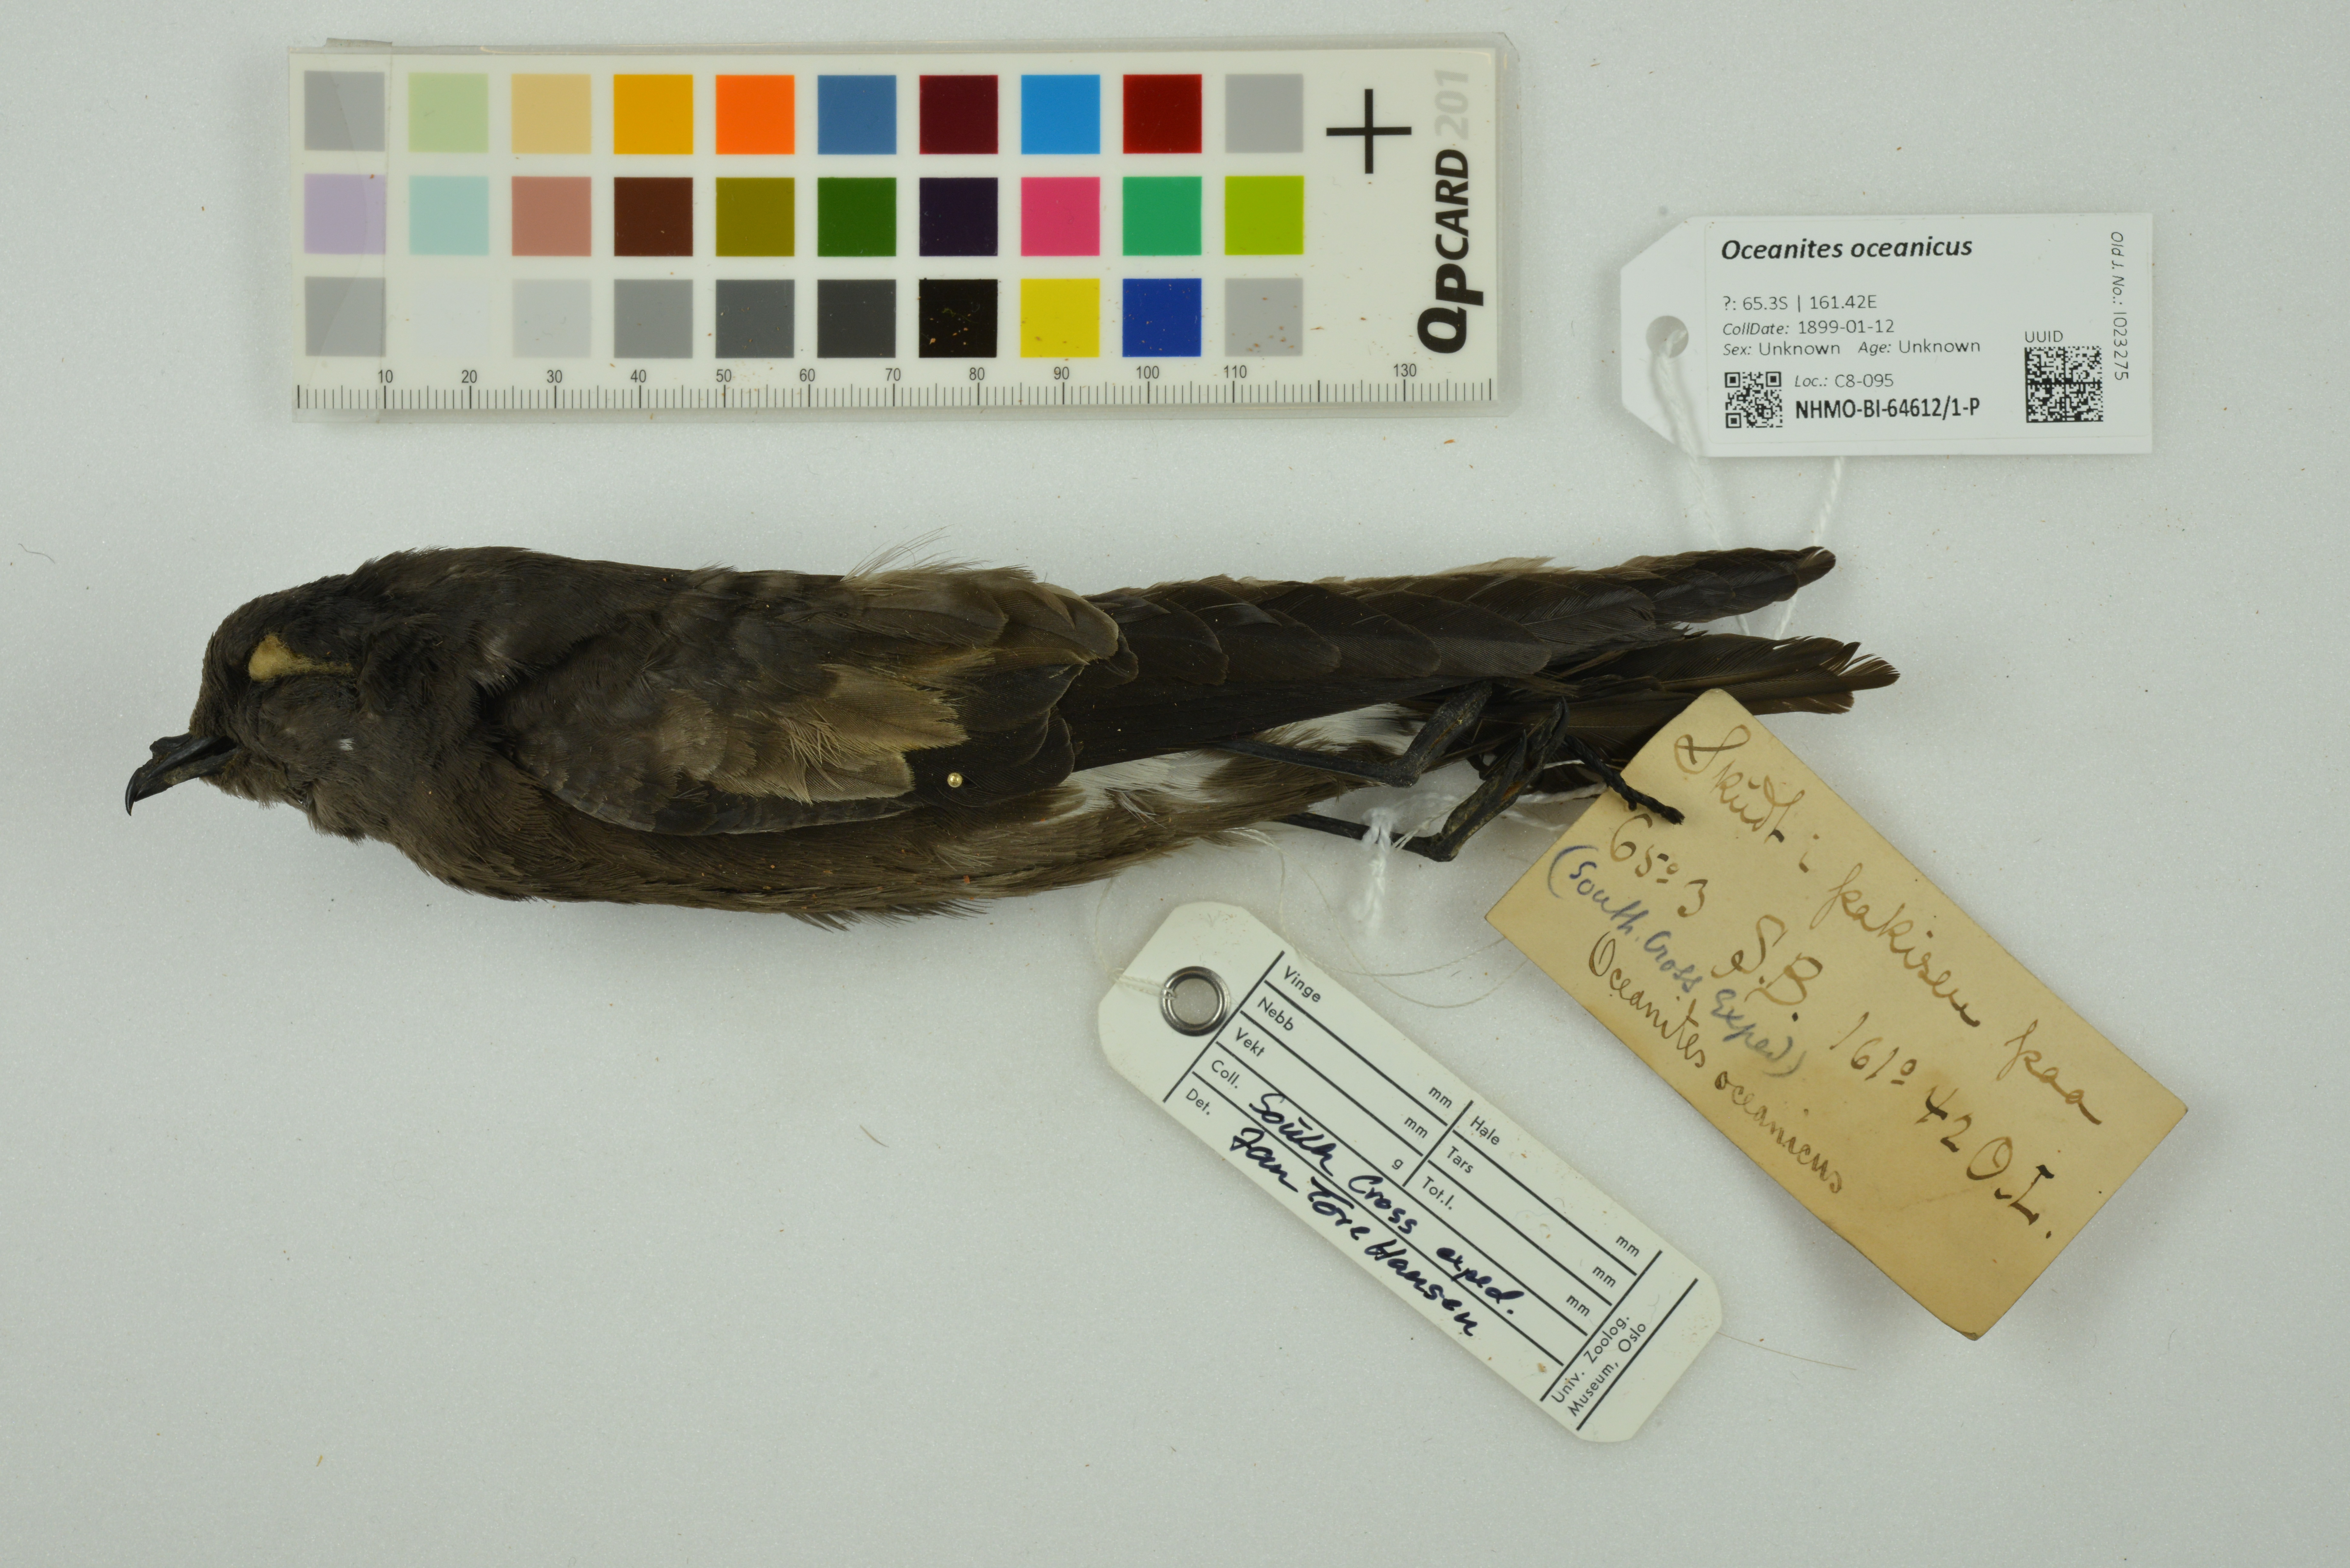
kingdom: Animalia
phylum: Chordata
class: Aves
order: Procellariiformes
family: Hydrobatidae
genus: Oceanites
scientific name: Oceanites oceanicus
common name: Wilson's storm petrel
